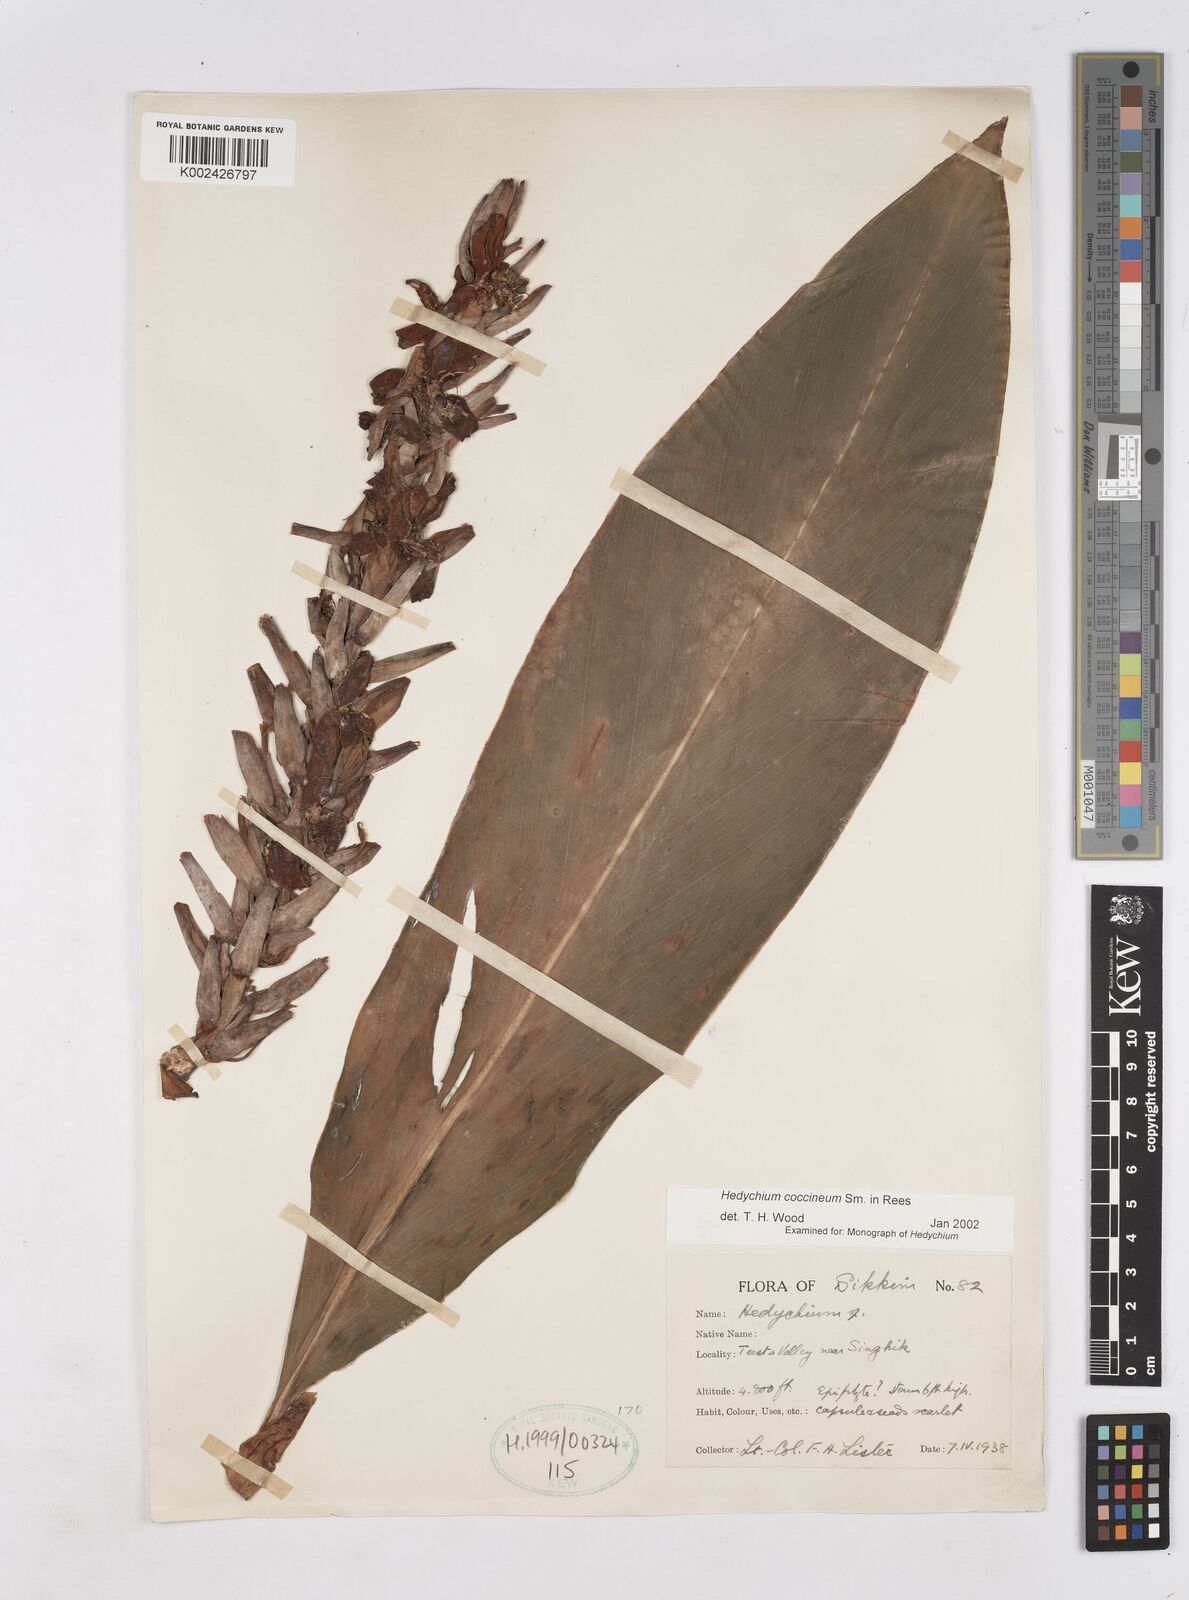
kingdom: Plantae
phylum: Tracheophyta
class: Liliopsida
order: Zingiberales
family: Zingiberaceae
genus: Hedychium
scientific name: Hedychium coccineum
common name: Red ginger-lily
